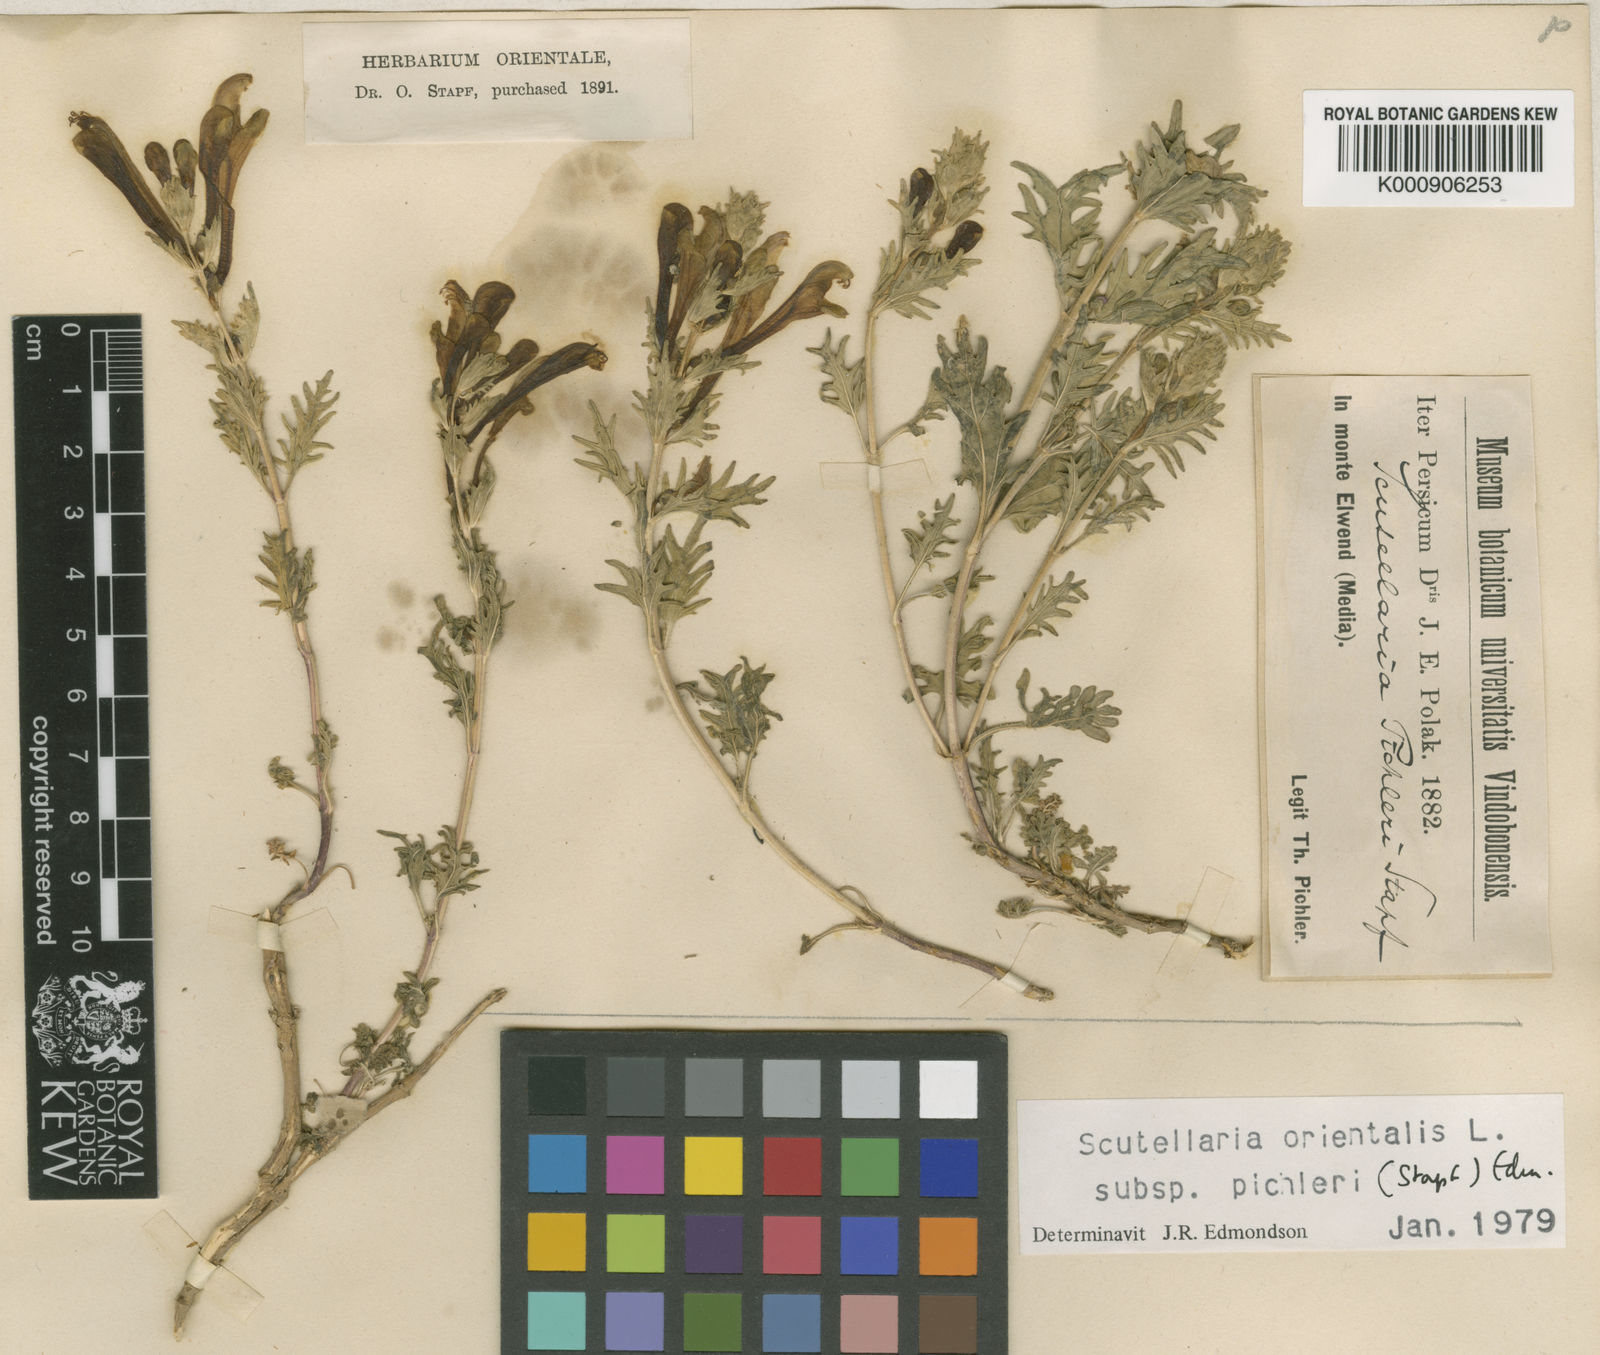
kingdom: Plantae
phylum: Tracheophyta
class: Magnoliopsida
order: Lamiales
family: Lamiaceae
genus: Scutellaria
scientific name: Scutellaria pinnatifida
